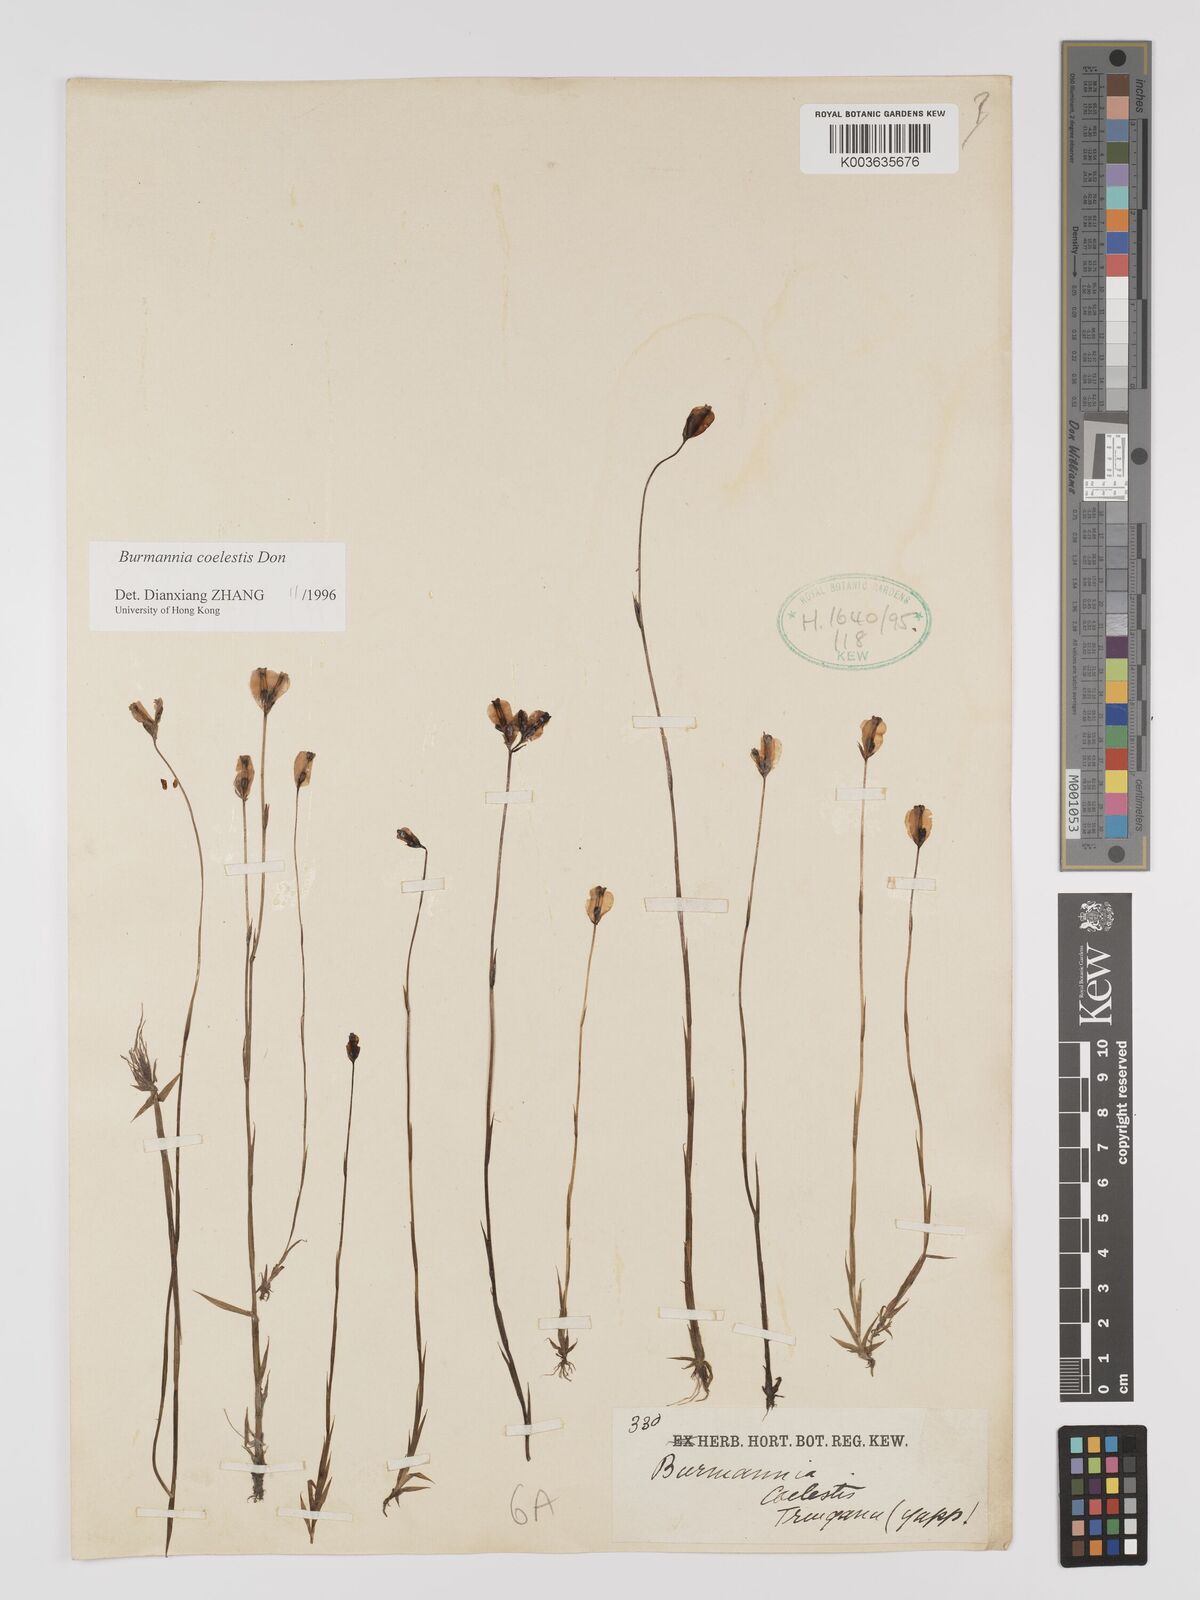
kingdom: Plantae
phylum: Tracheophyta
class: Liliopsida
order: Dioscoreales
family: Burmanniaceae
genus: Burmannia
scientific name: Burmannia coelestis
